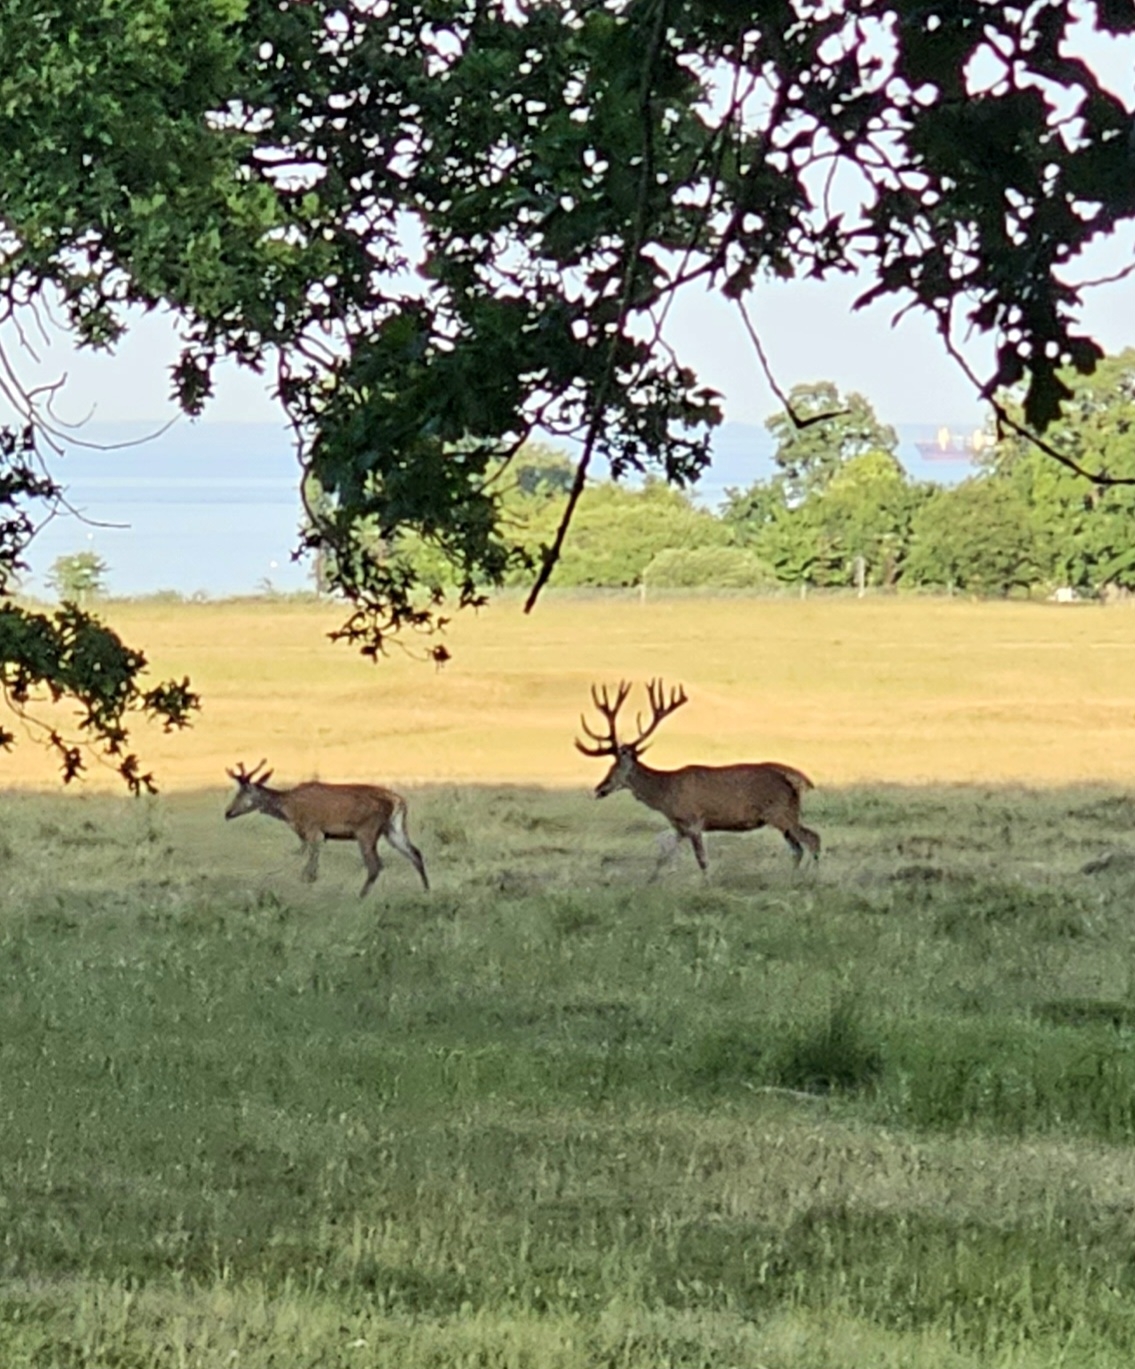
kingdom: Animalia
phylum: Chordata
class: Mammalia
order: Artiodactyla
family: Cervidae
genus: Cervus
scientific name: Cervus elaphus
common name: Krondyr
